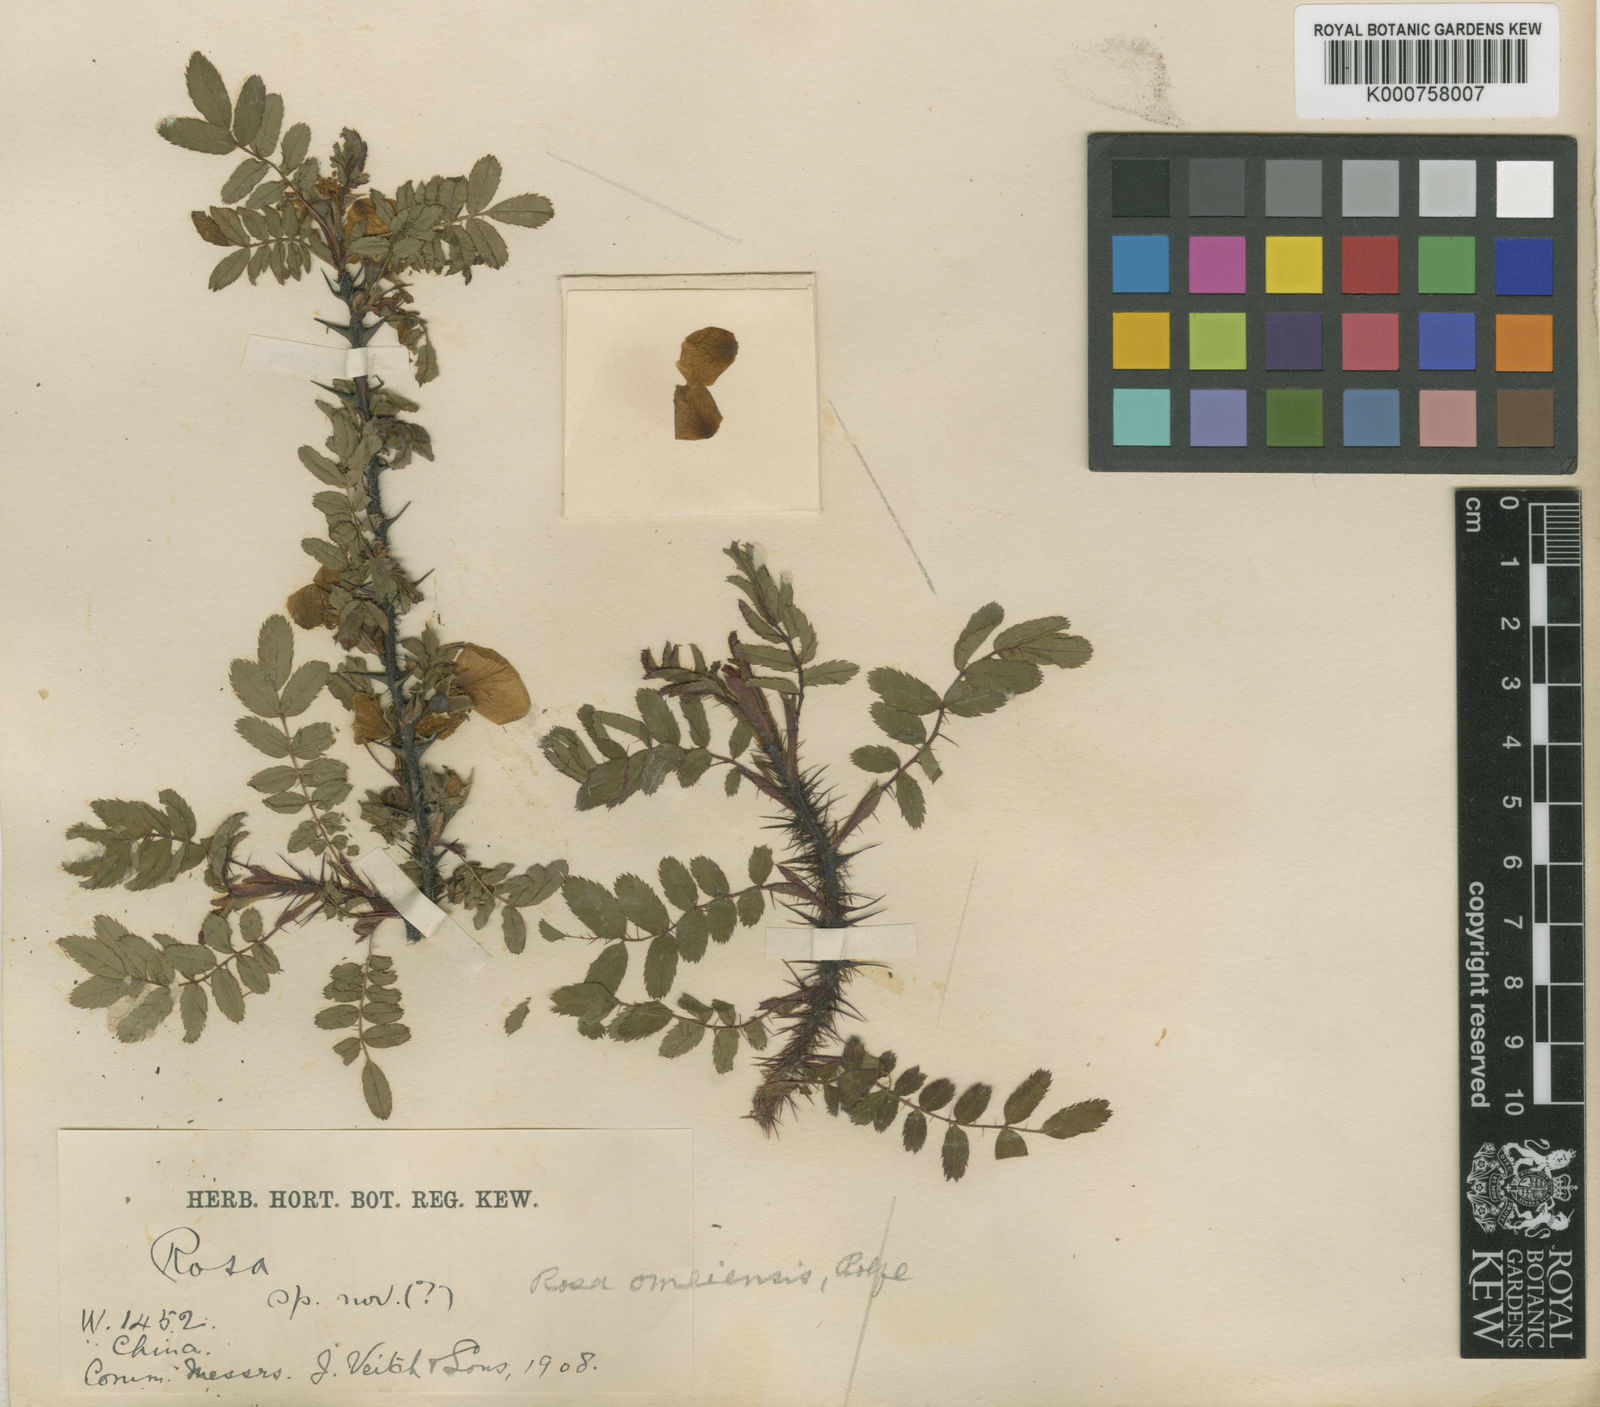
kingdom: Plantae
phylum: Tracheophyta
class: Magnoliopsida
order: Rosales
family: Rosaceae
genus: Rosa
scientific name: Rosa omeiensis
